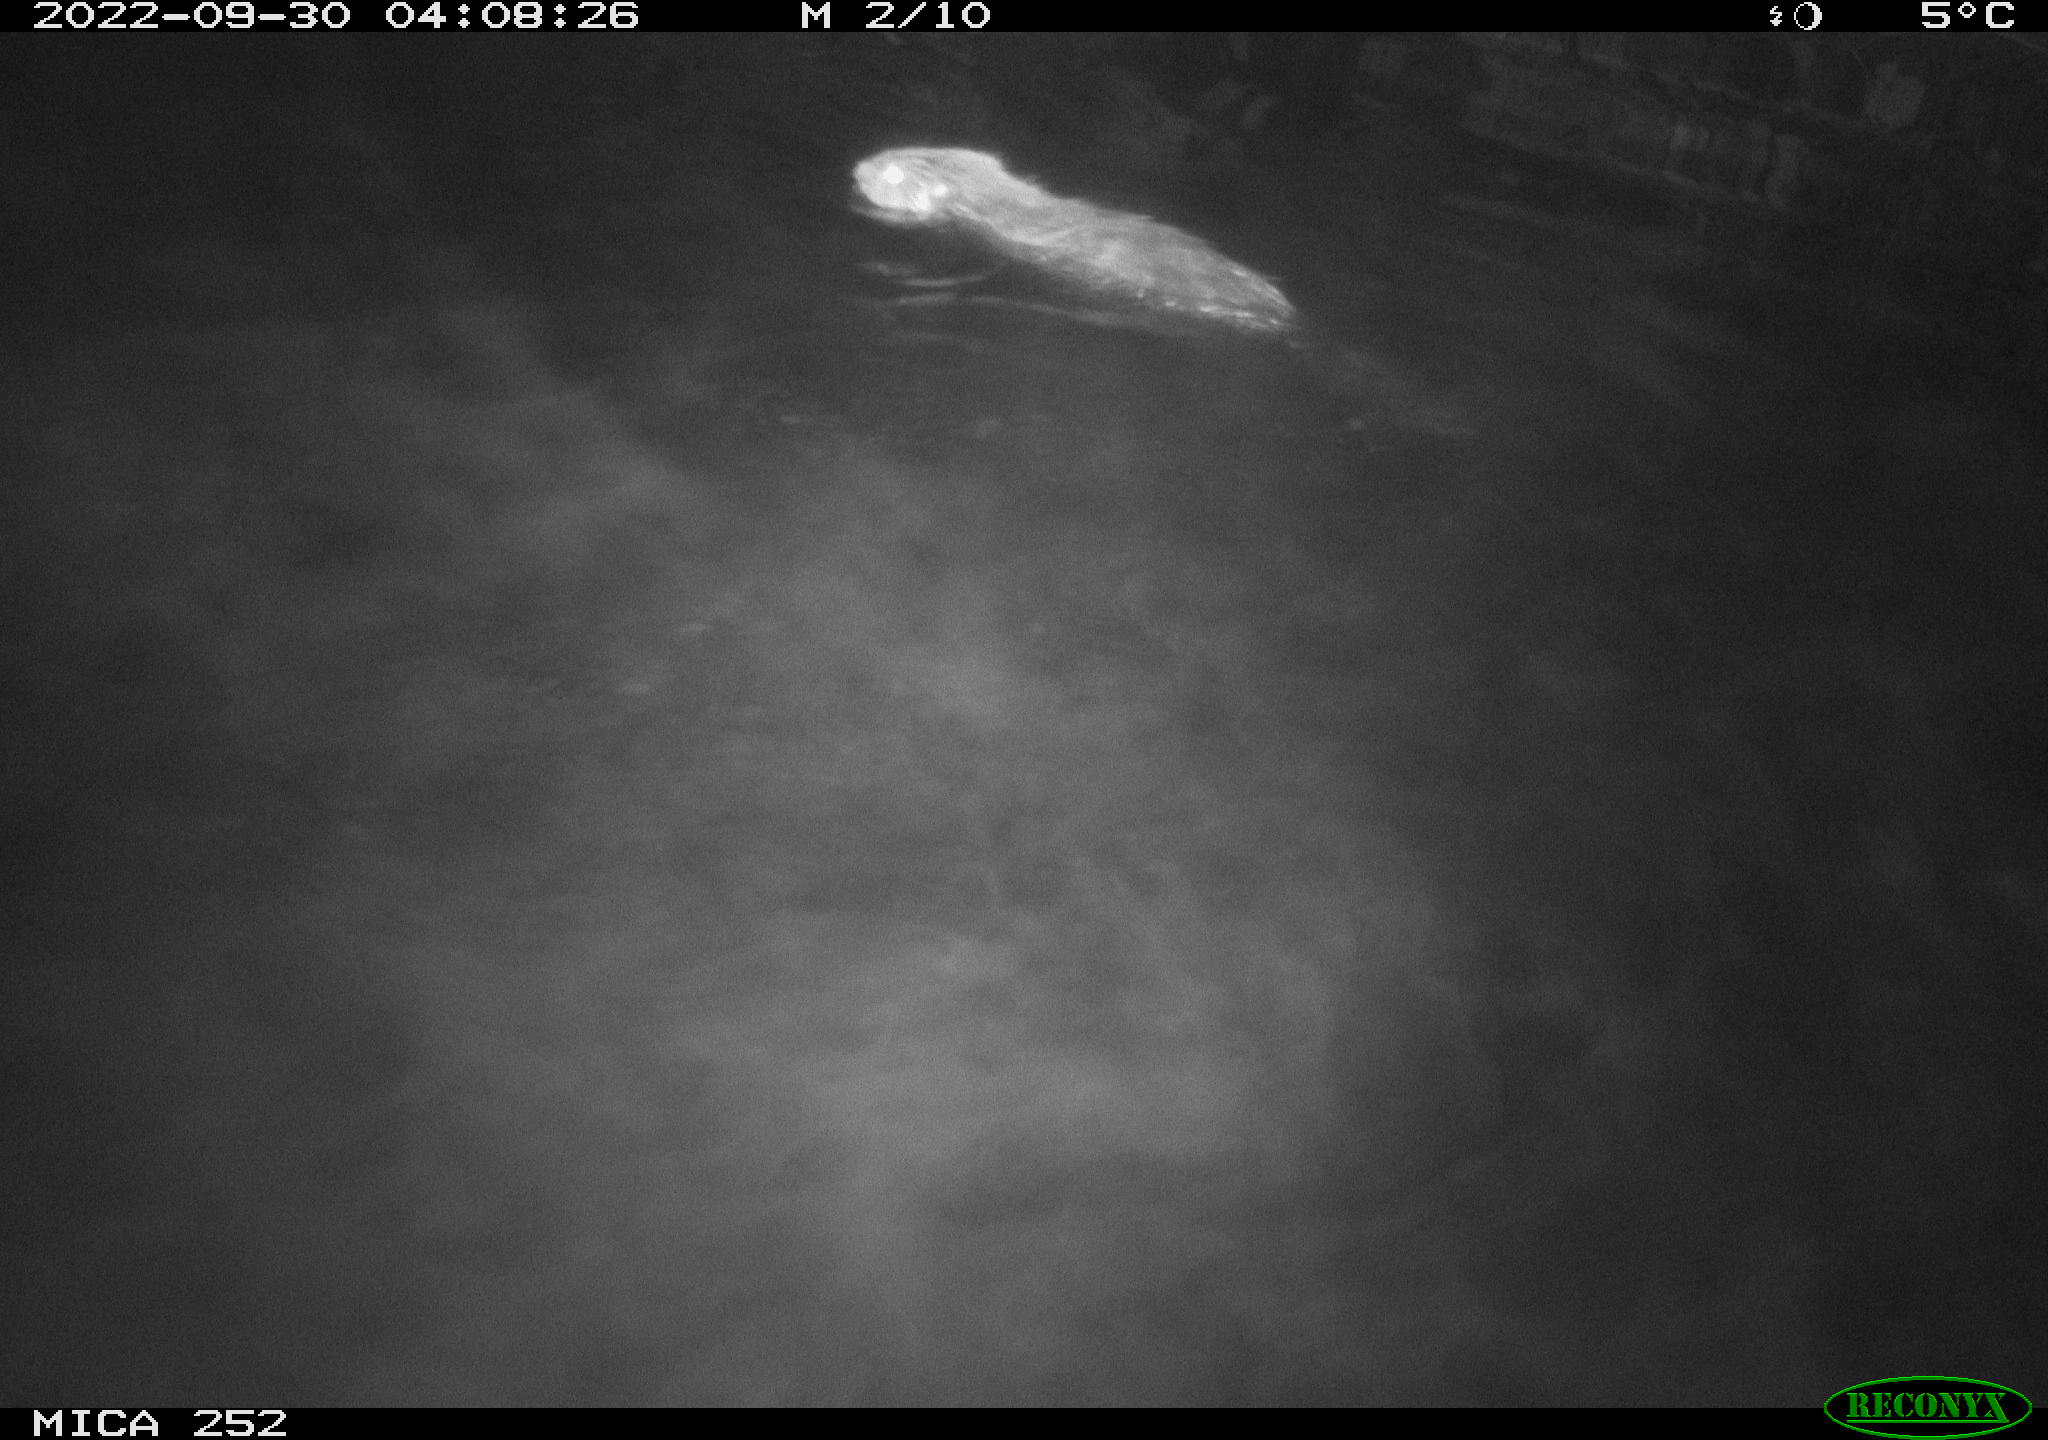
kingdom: Animalia
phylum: Chordata
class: Mammalia
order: Rodentia
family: Castoridae
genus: Castor
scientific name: Castor fiber
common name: Eurasian beaver
